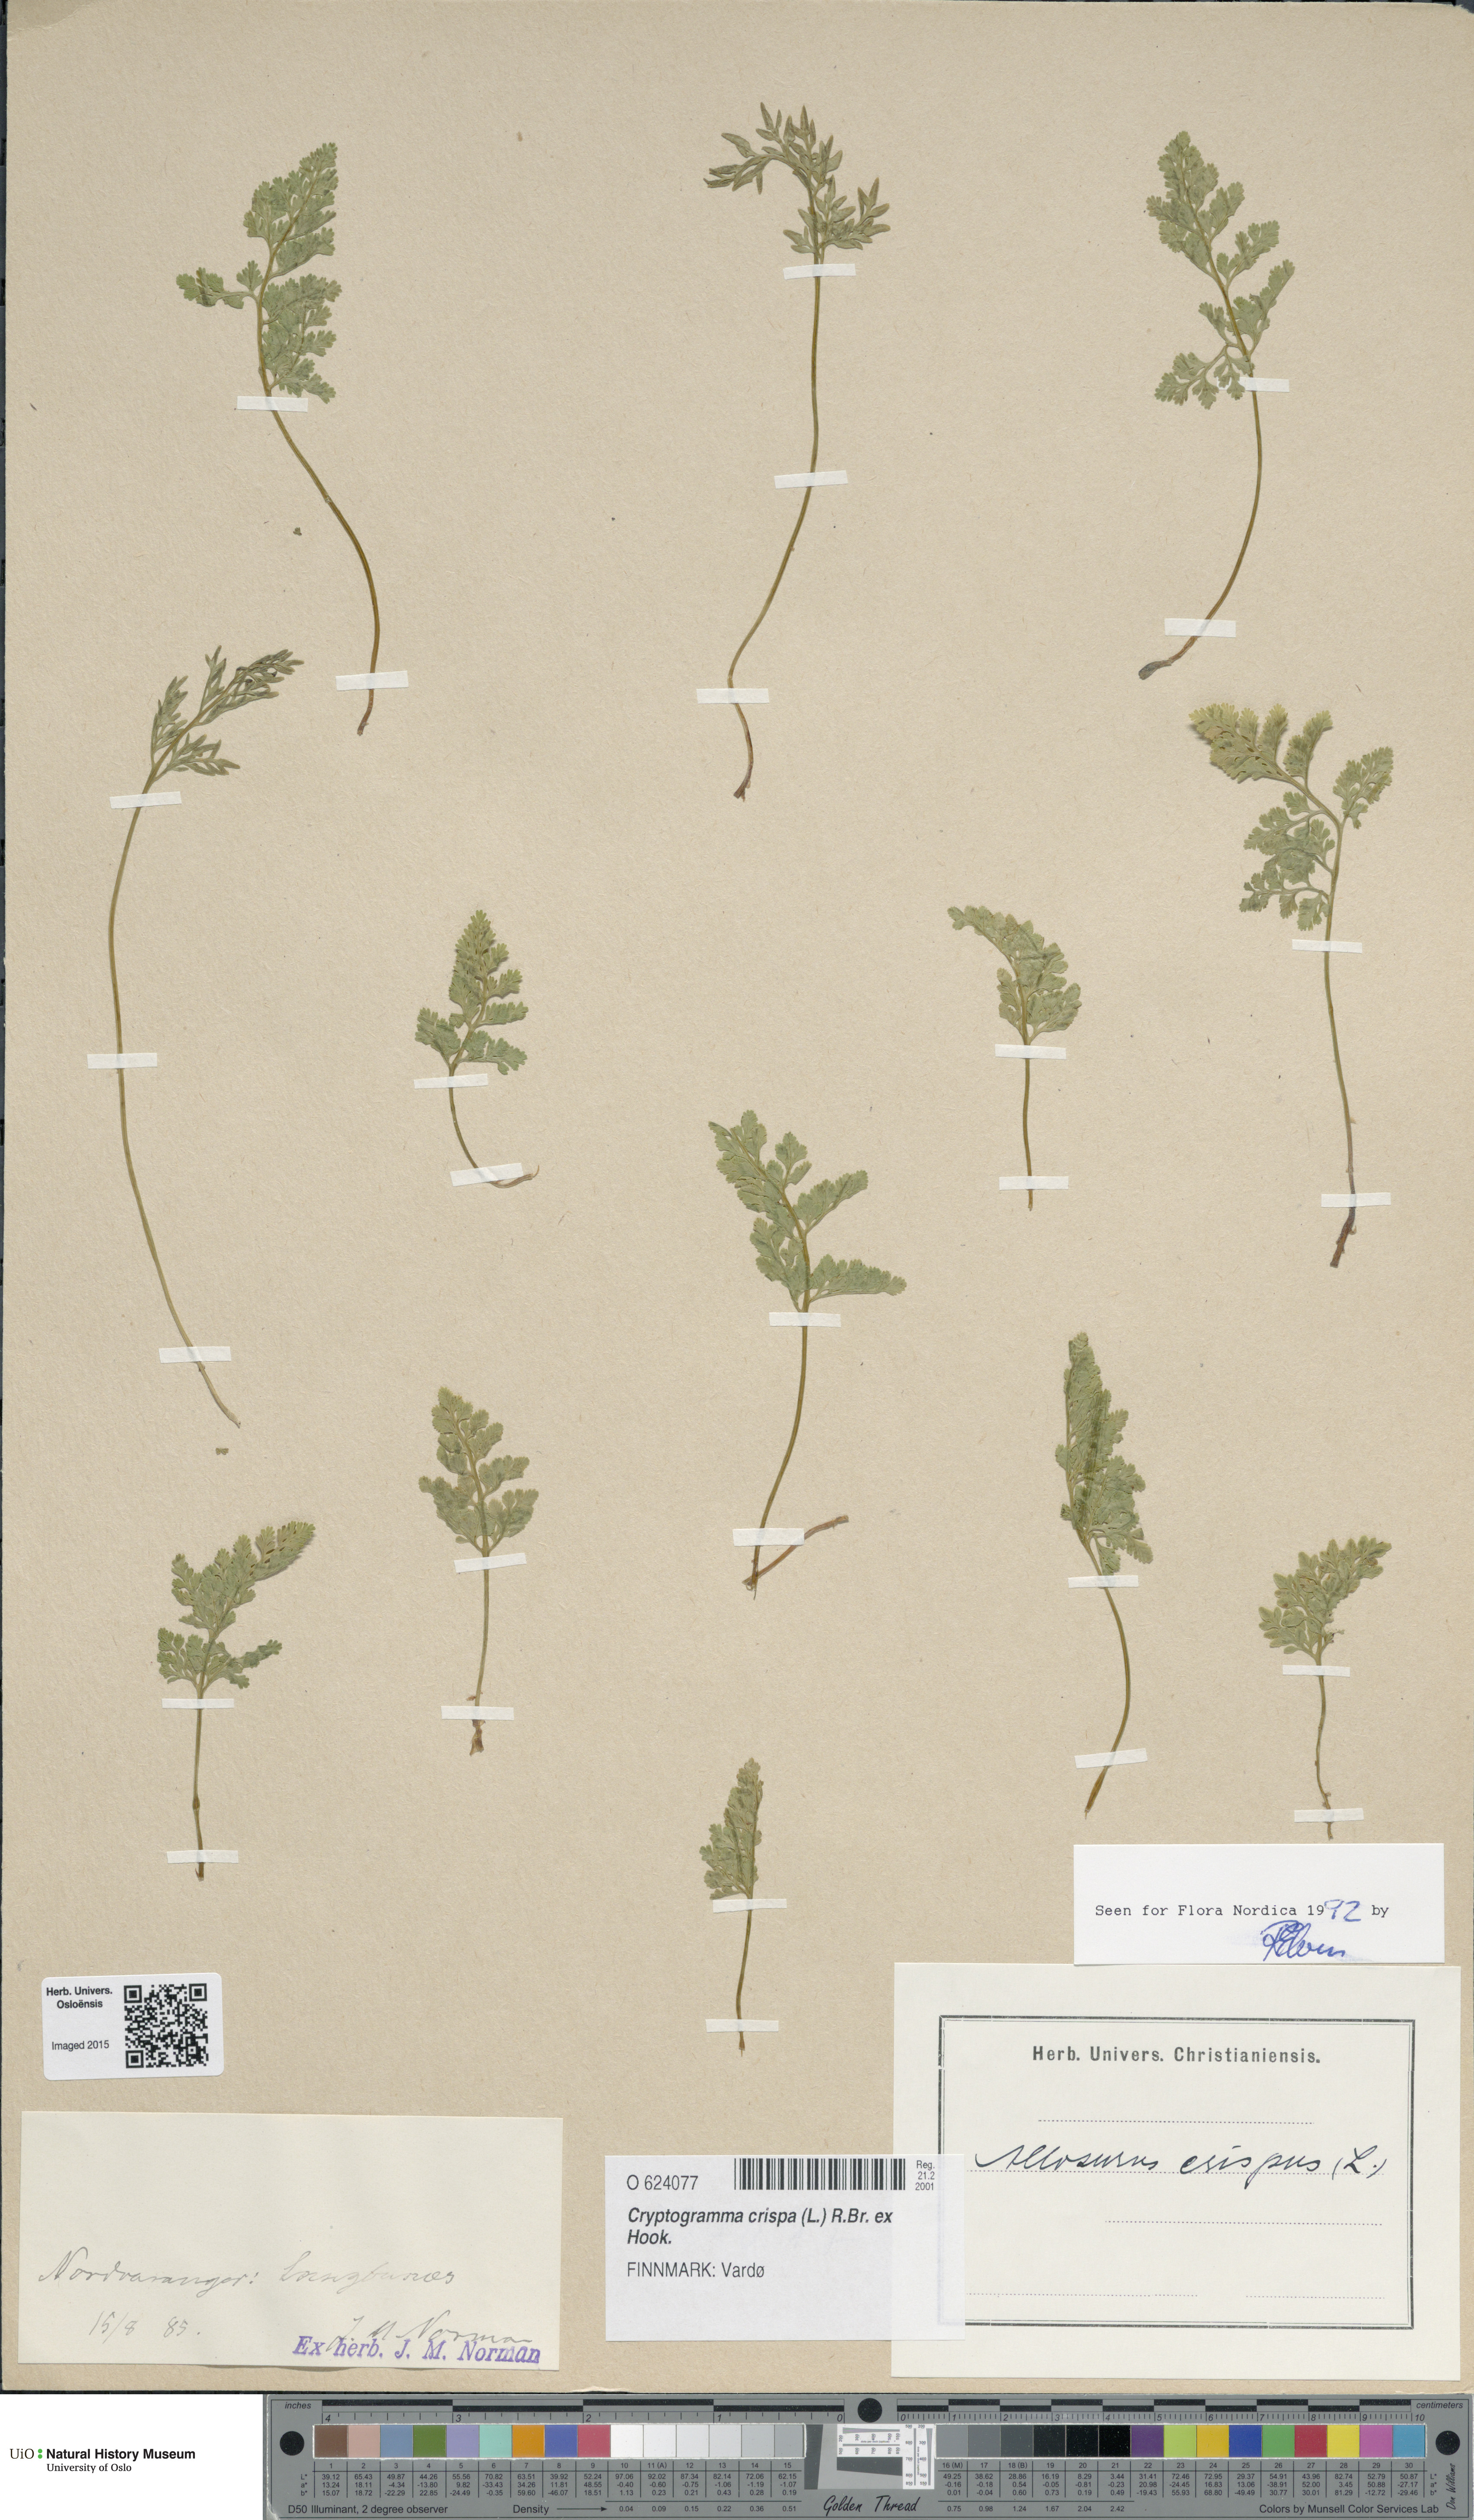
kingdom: Plantae
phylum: Tracheophyta
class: Polypodiopsida
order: Polypodiales
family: Pteridaceae
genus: Cryptogramma
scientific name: Cryptogramma crispa
